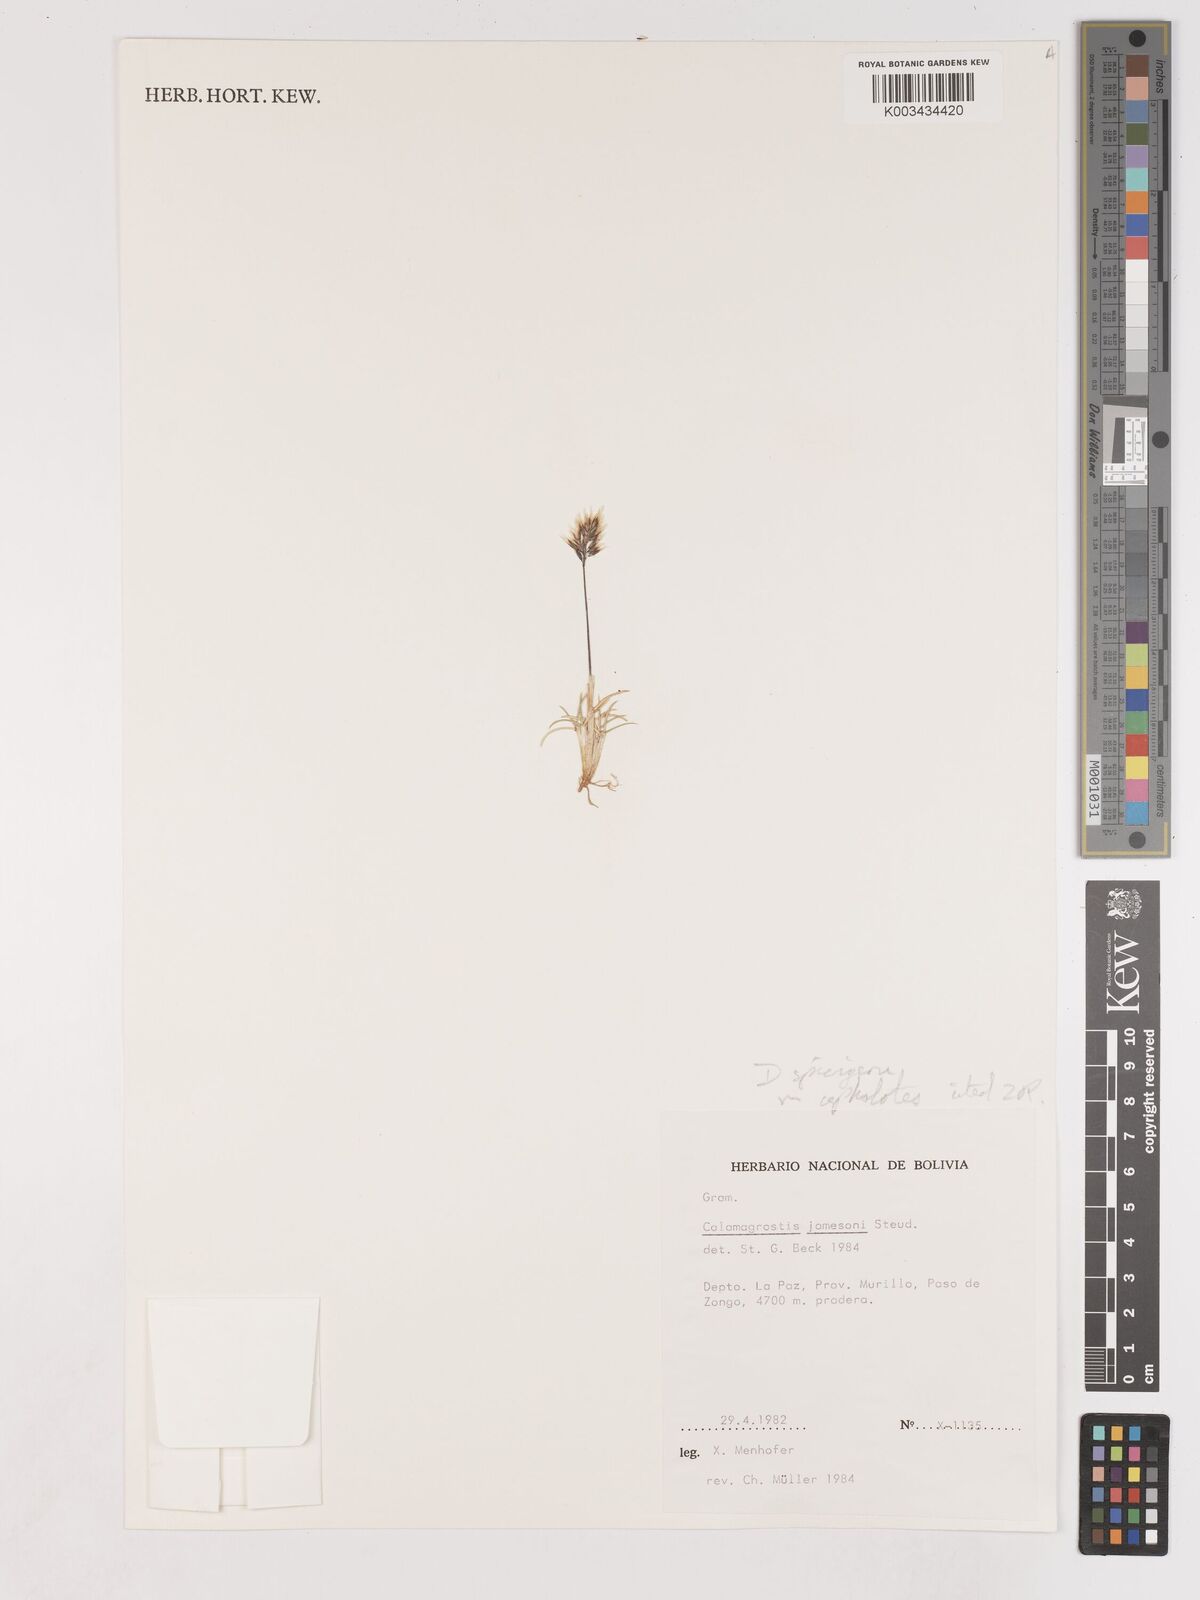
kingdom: Plantae
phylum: Tracheophyta
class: Liliopsida
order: Poales
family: Poaceae
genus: Cinnagrostis
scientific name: Cinnagrostis spicigera
